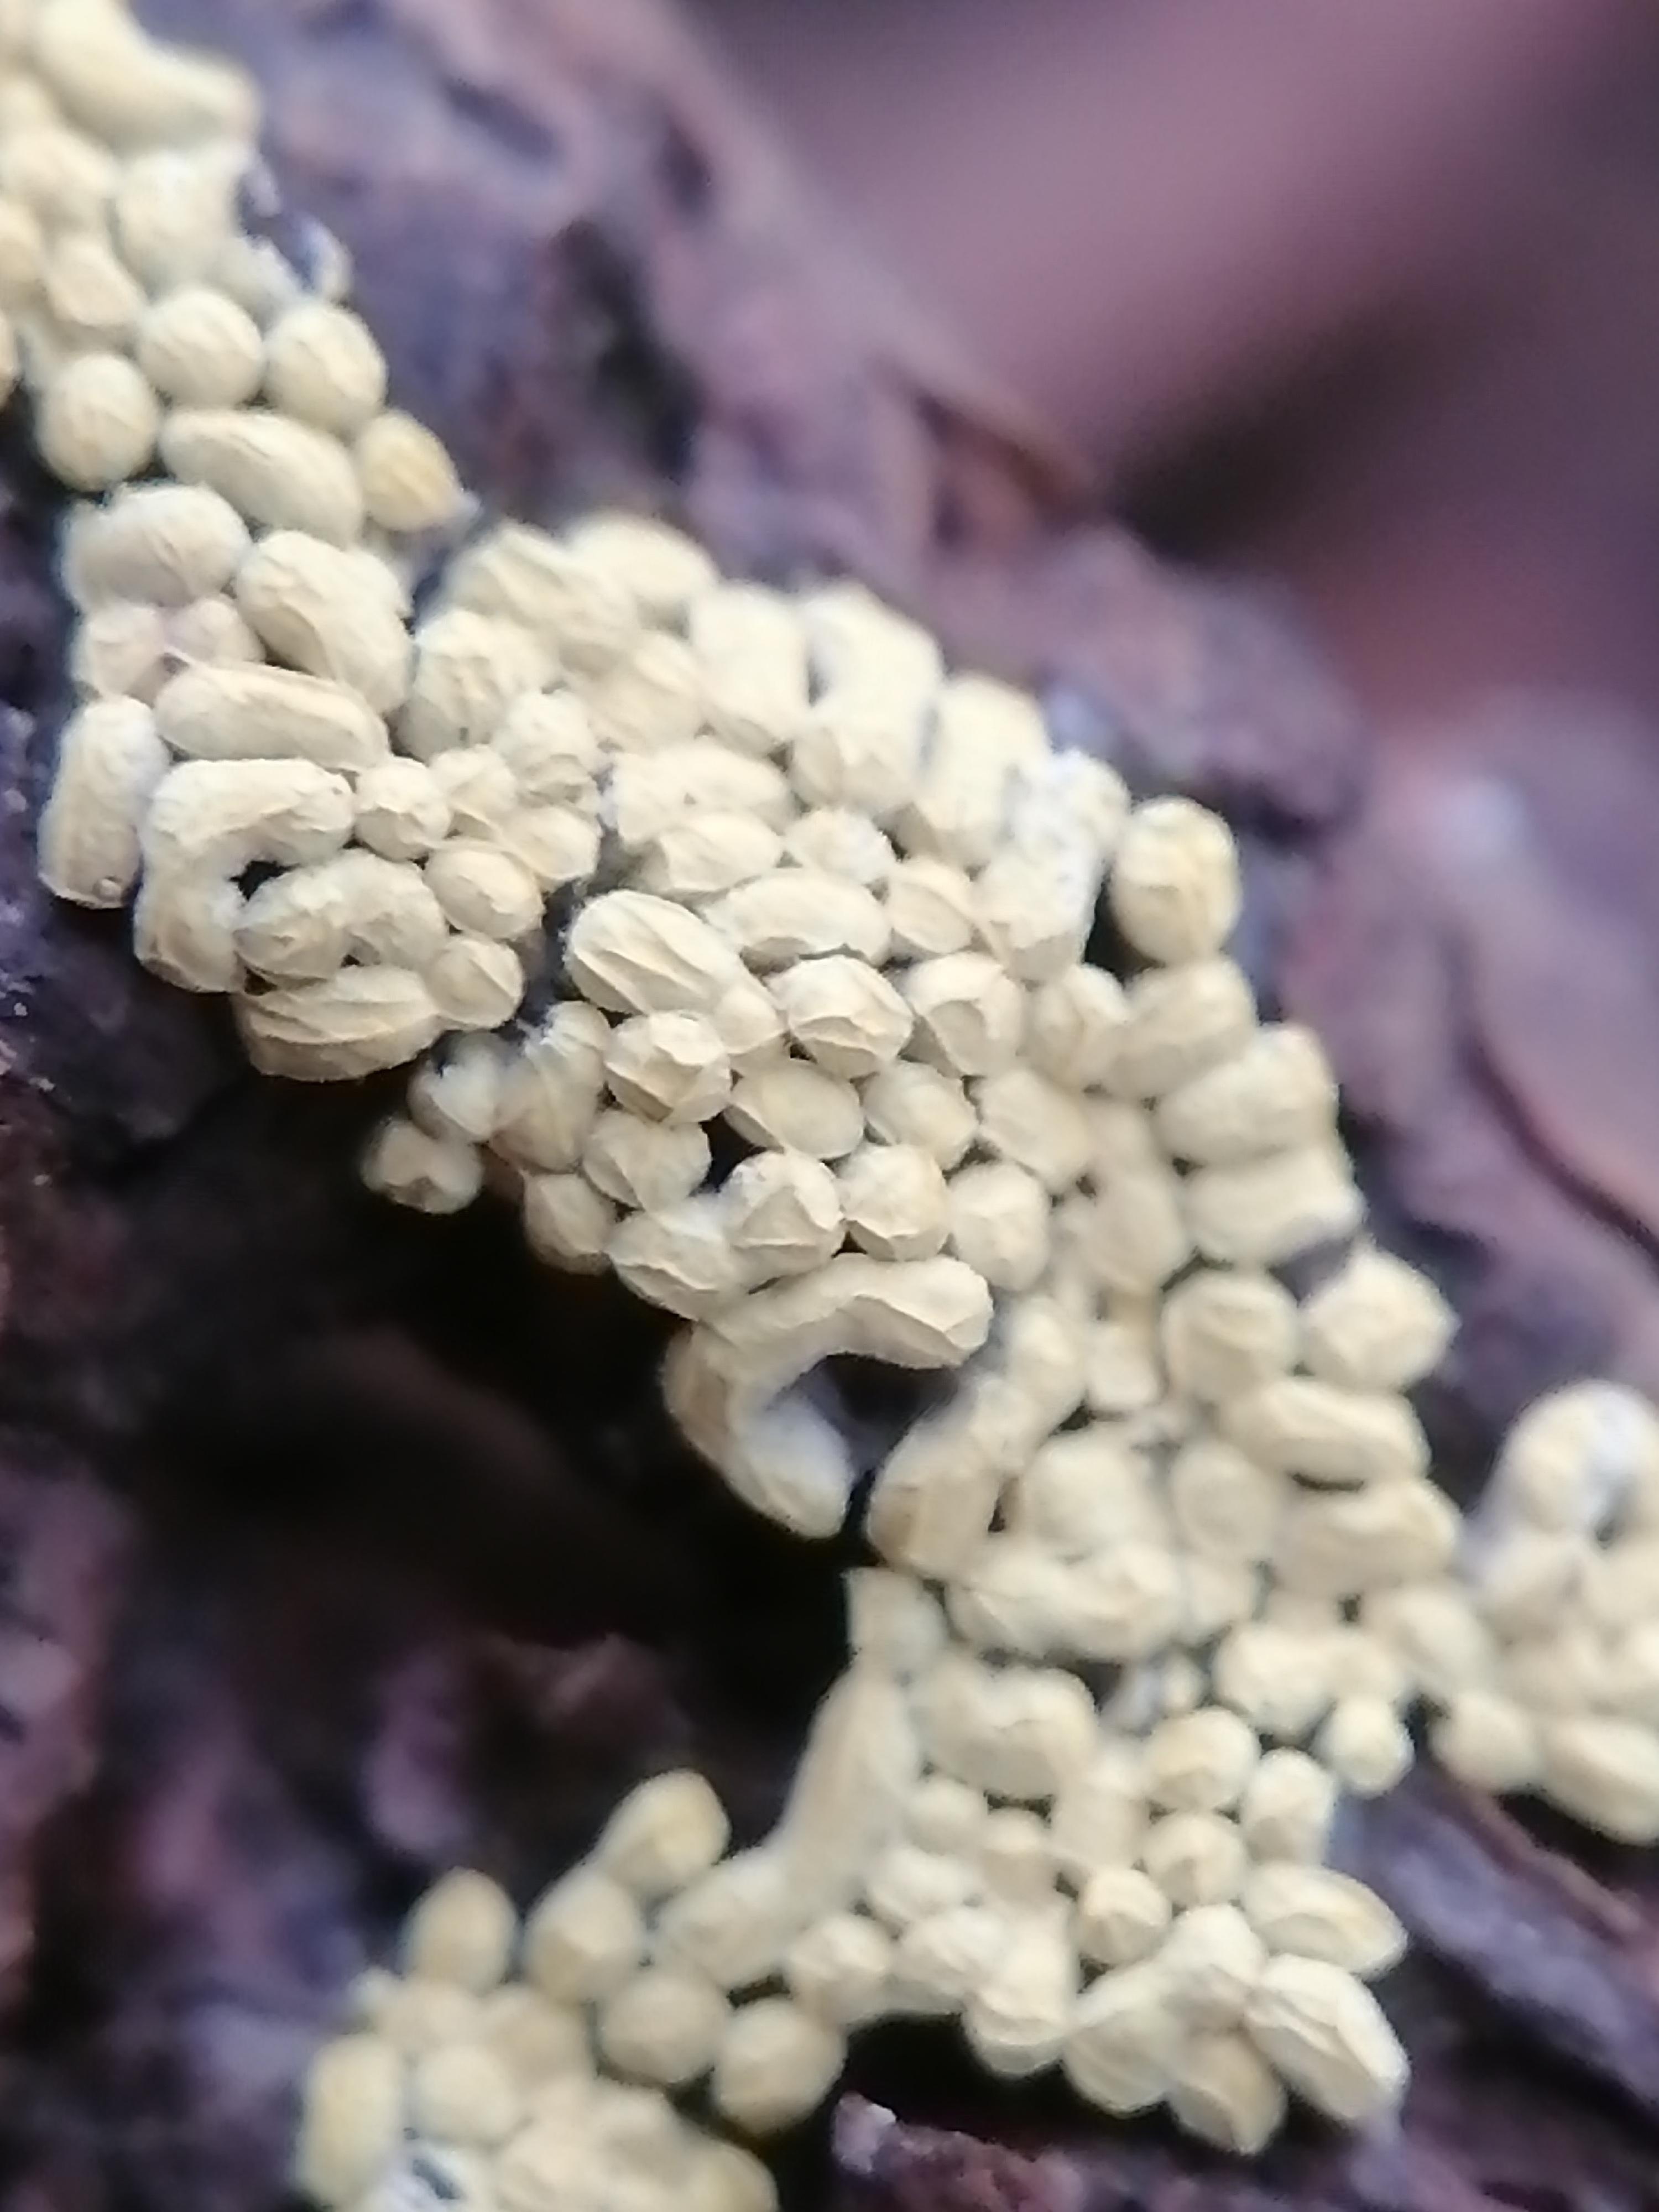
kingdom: Protozoa
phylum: Mycetozoa
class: Myxomycetes
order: Physarales
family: Physaraceae
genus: Physarum
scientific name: Physarum contextum
